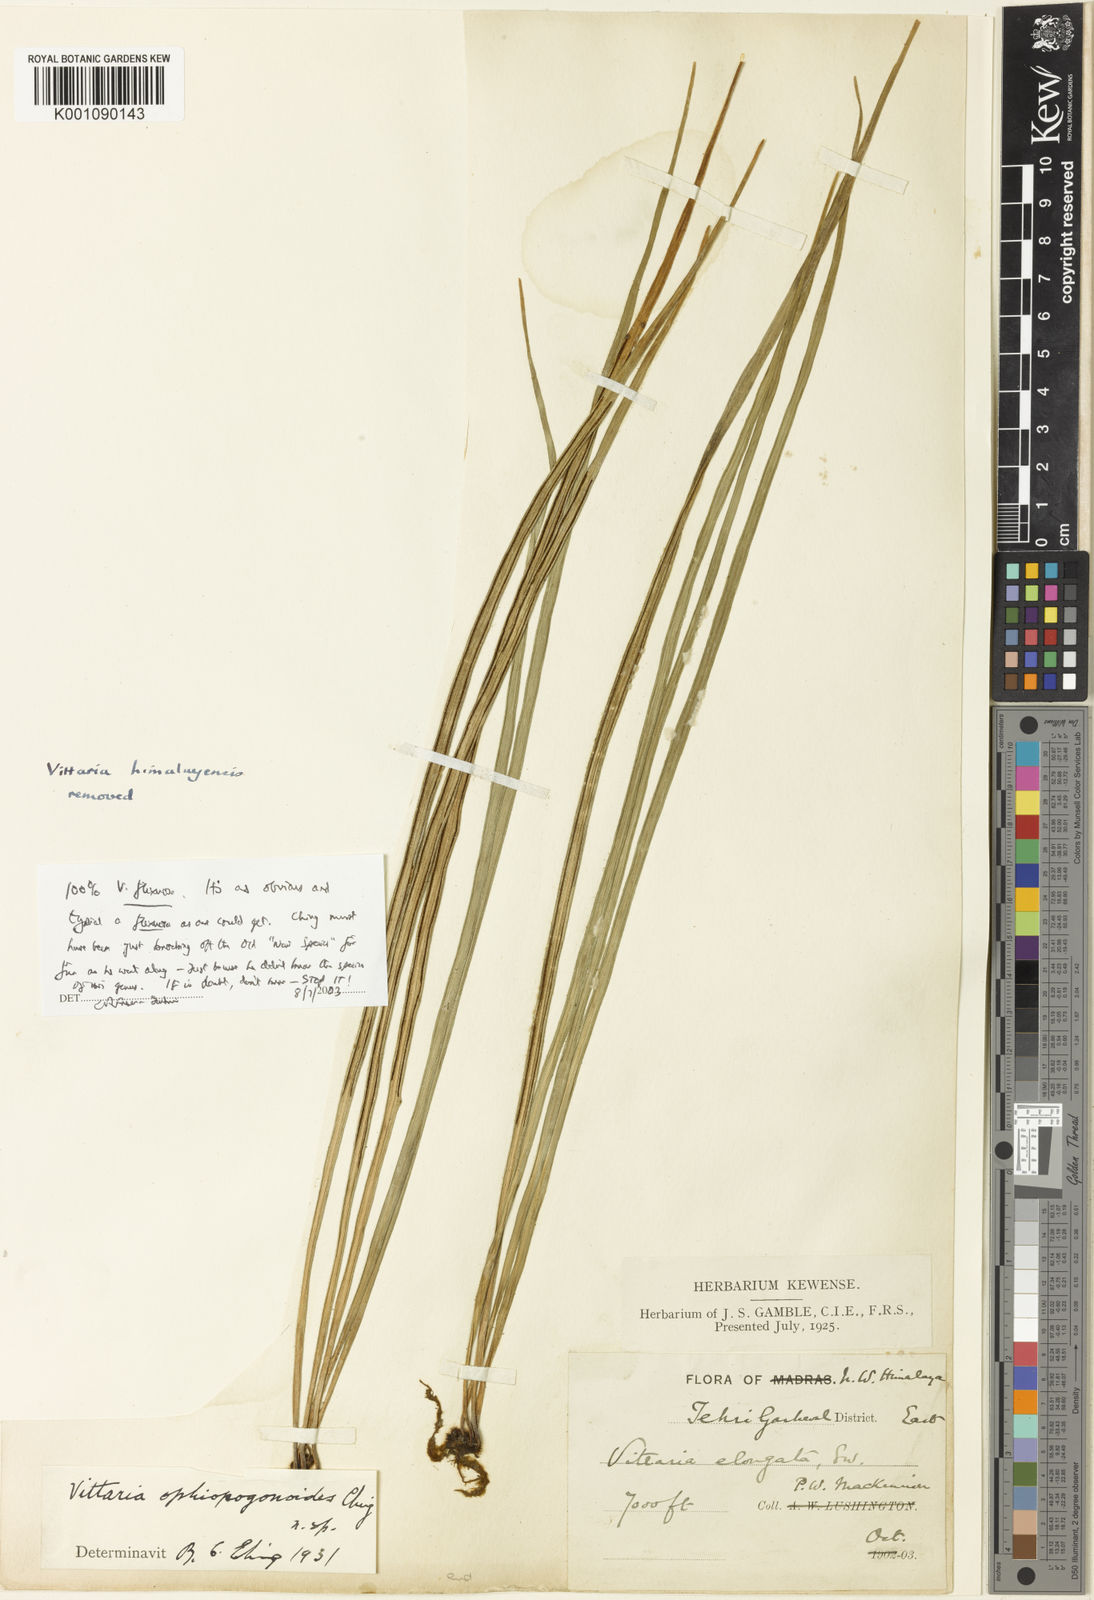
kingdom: Plantae
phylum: Tracheophyta
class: Polypodiopsida
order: Polypodiales
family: Pteridaceae
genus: Haplopteris
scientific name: Haplopteris flexuosa
